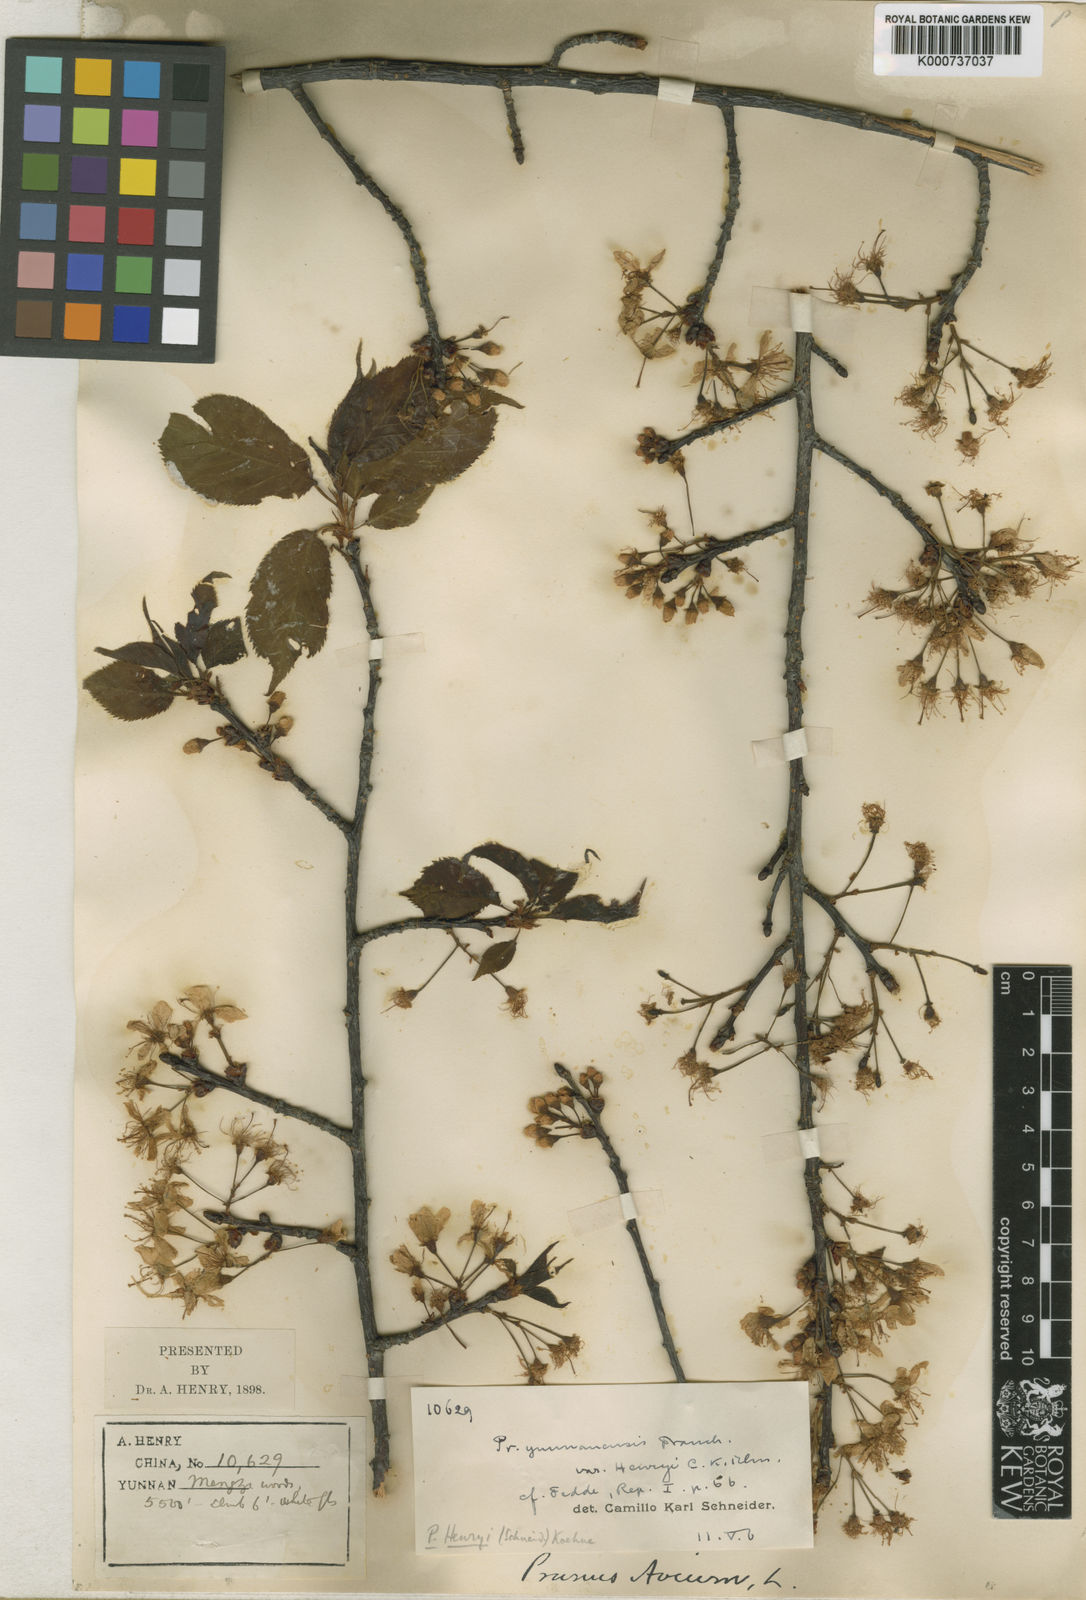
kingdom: Plantae
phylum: Tracheophyta
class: Magnoliopsida
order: Rosales
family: Rosaceae
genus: Prunus
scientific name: Prunus henryi
